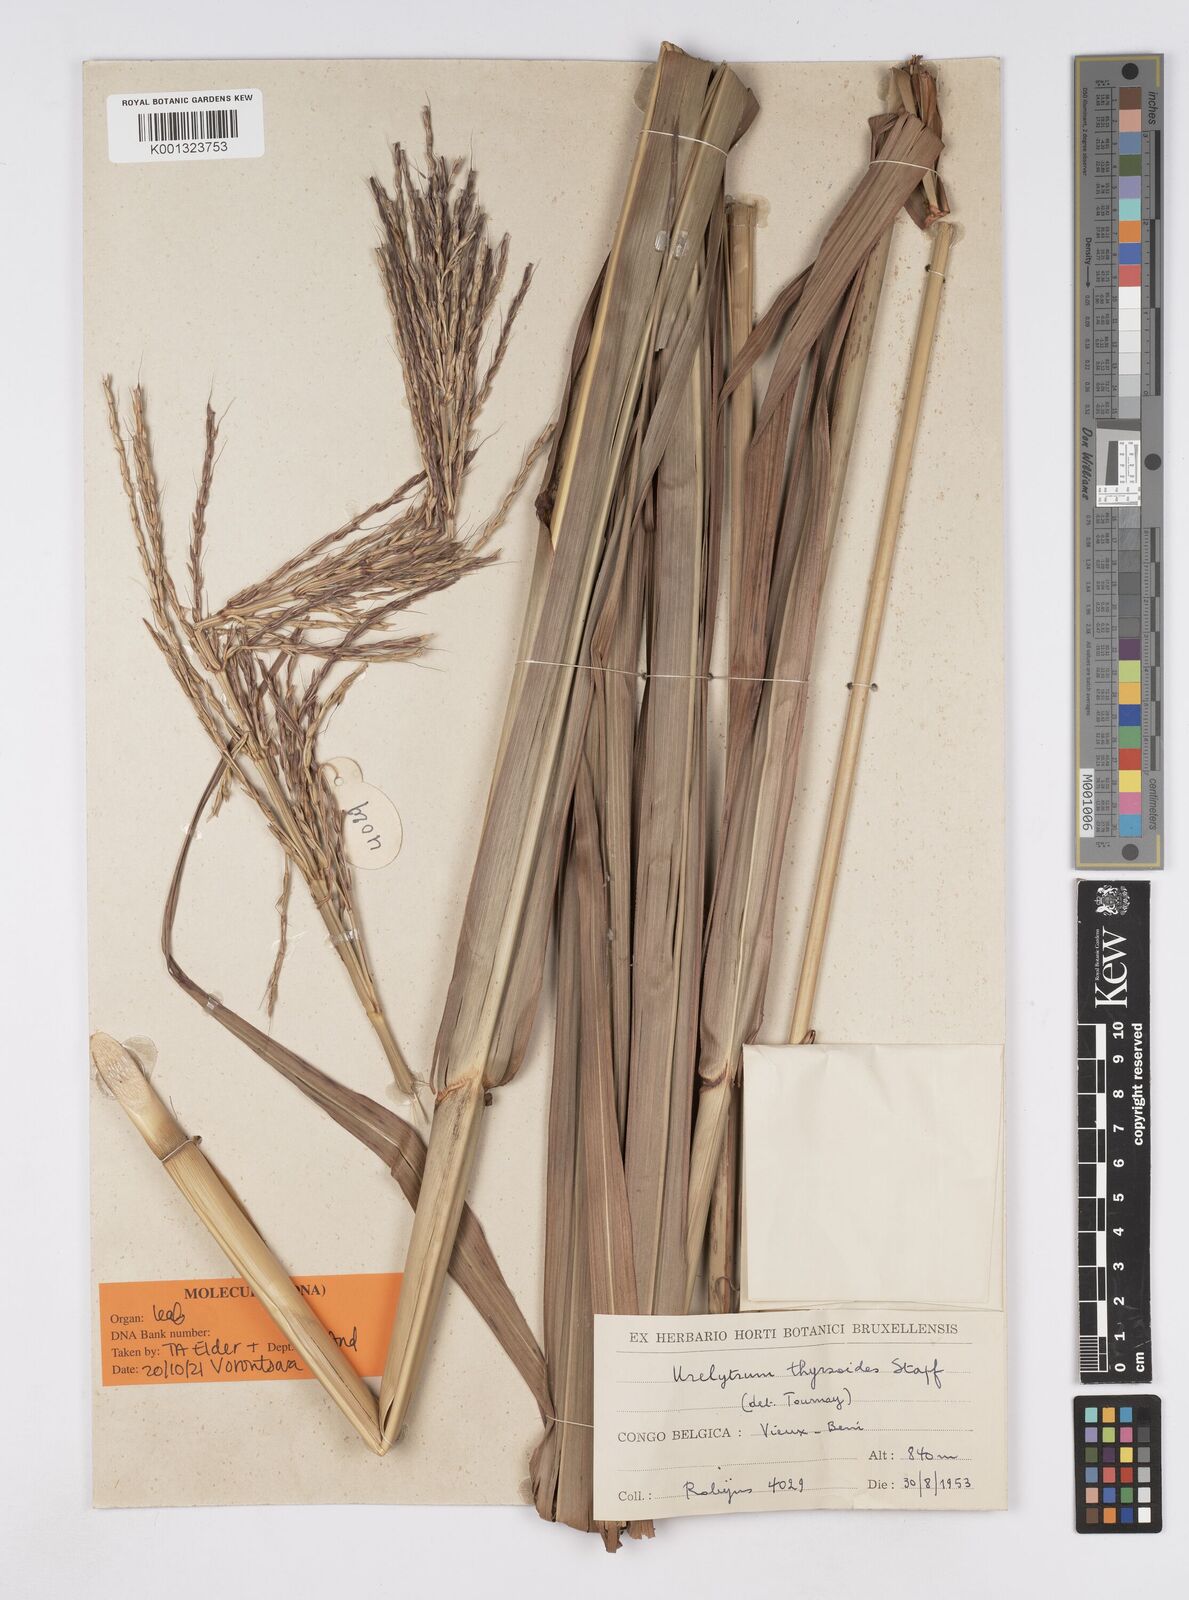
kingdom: Plantae
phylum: Tracheophyta
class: Liliopsida
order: Poales
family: Poaceae
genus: Urelytrum
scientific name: Urelytrum giganteum
